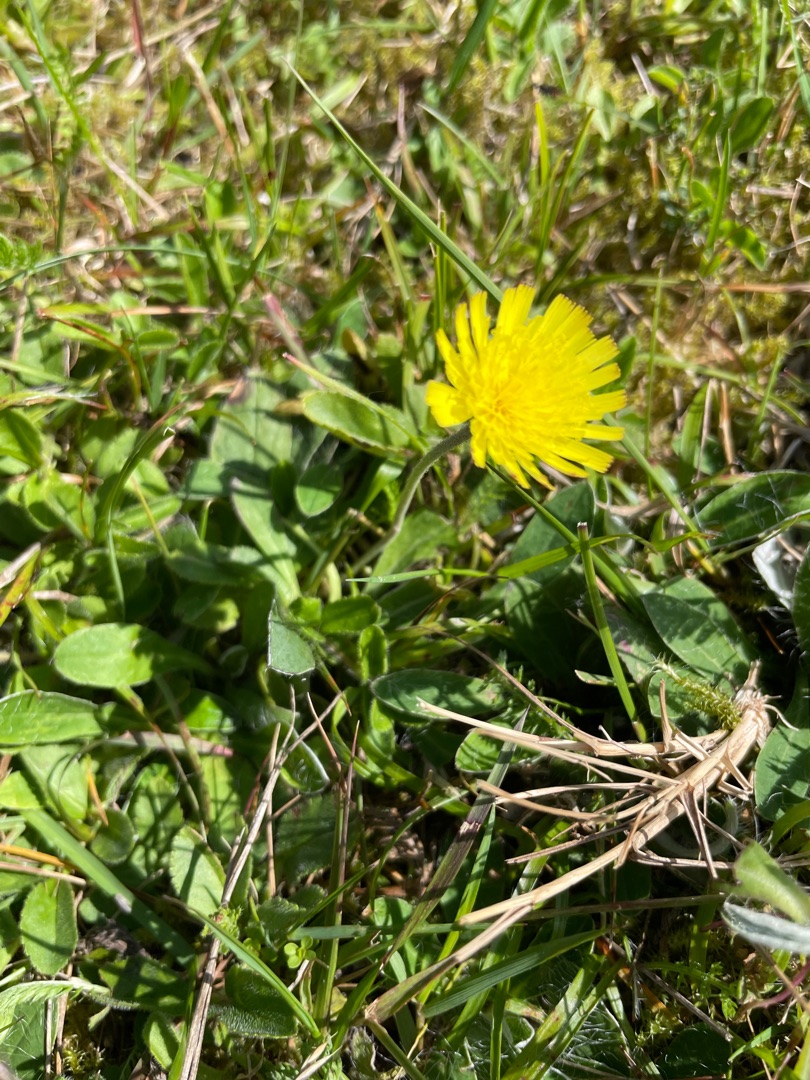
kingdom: Plantae
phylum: Tracheophyta
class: Magnoliopsida
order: Asterales
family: Asteraceae
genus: Pilosella
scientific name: Pilosella officinarum
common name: Håret høgeurt
